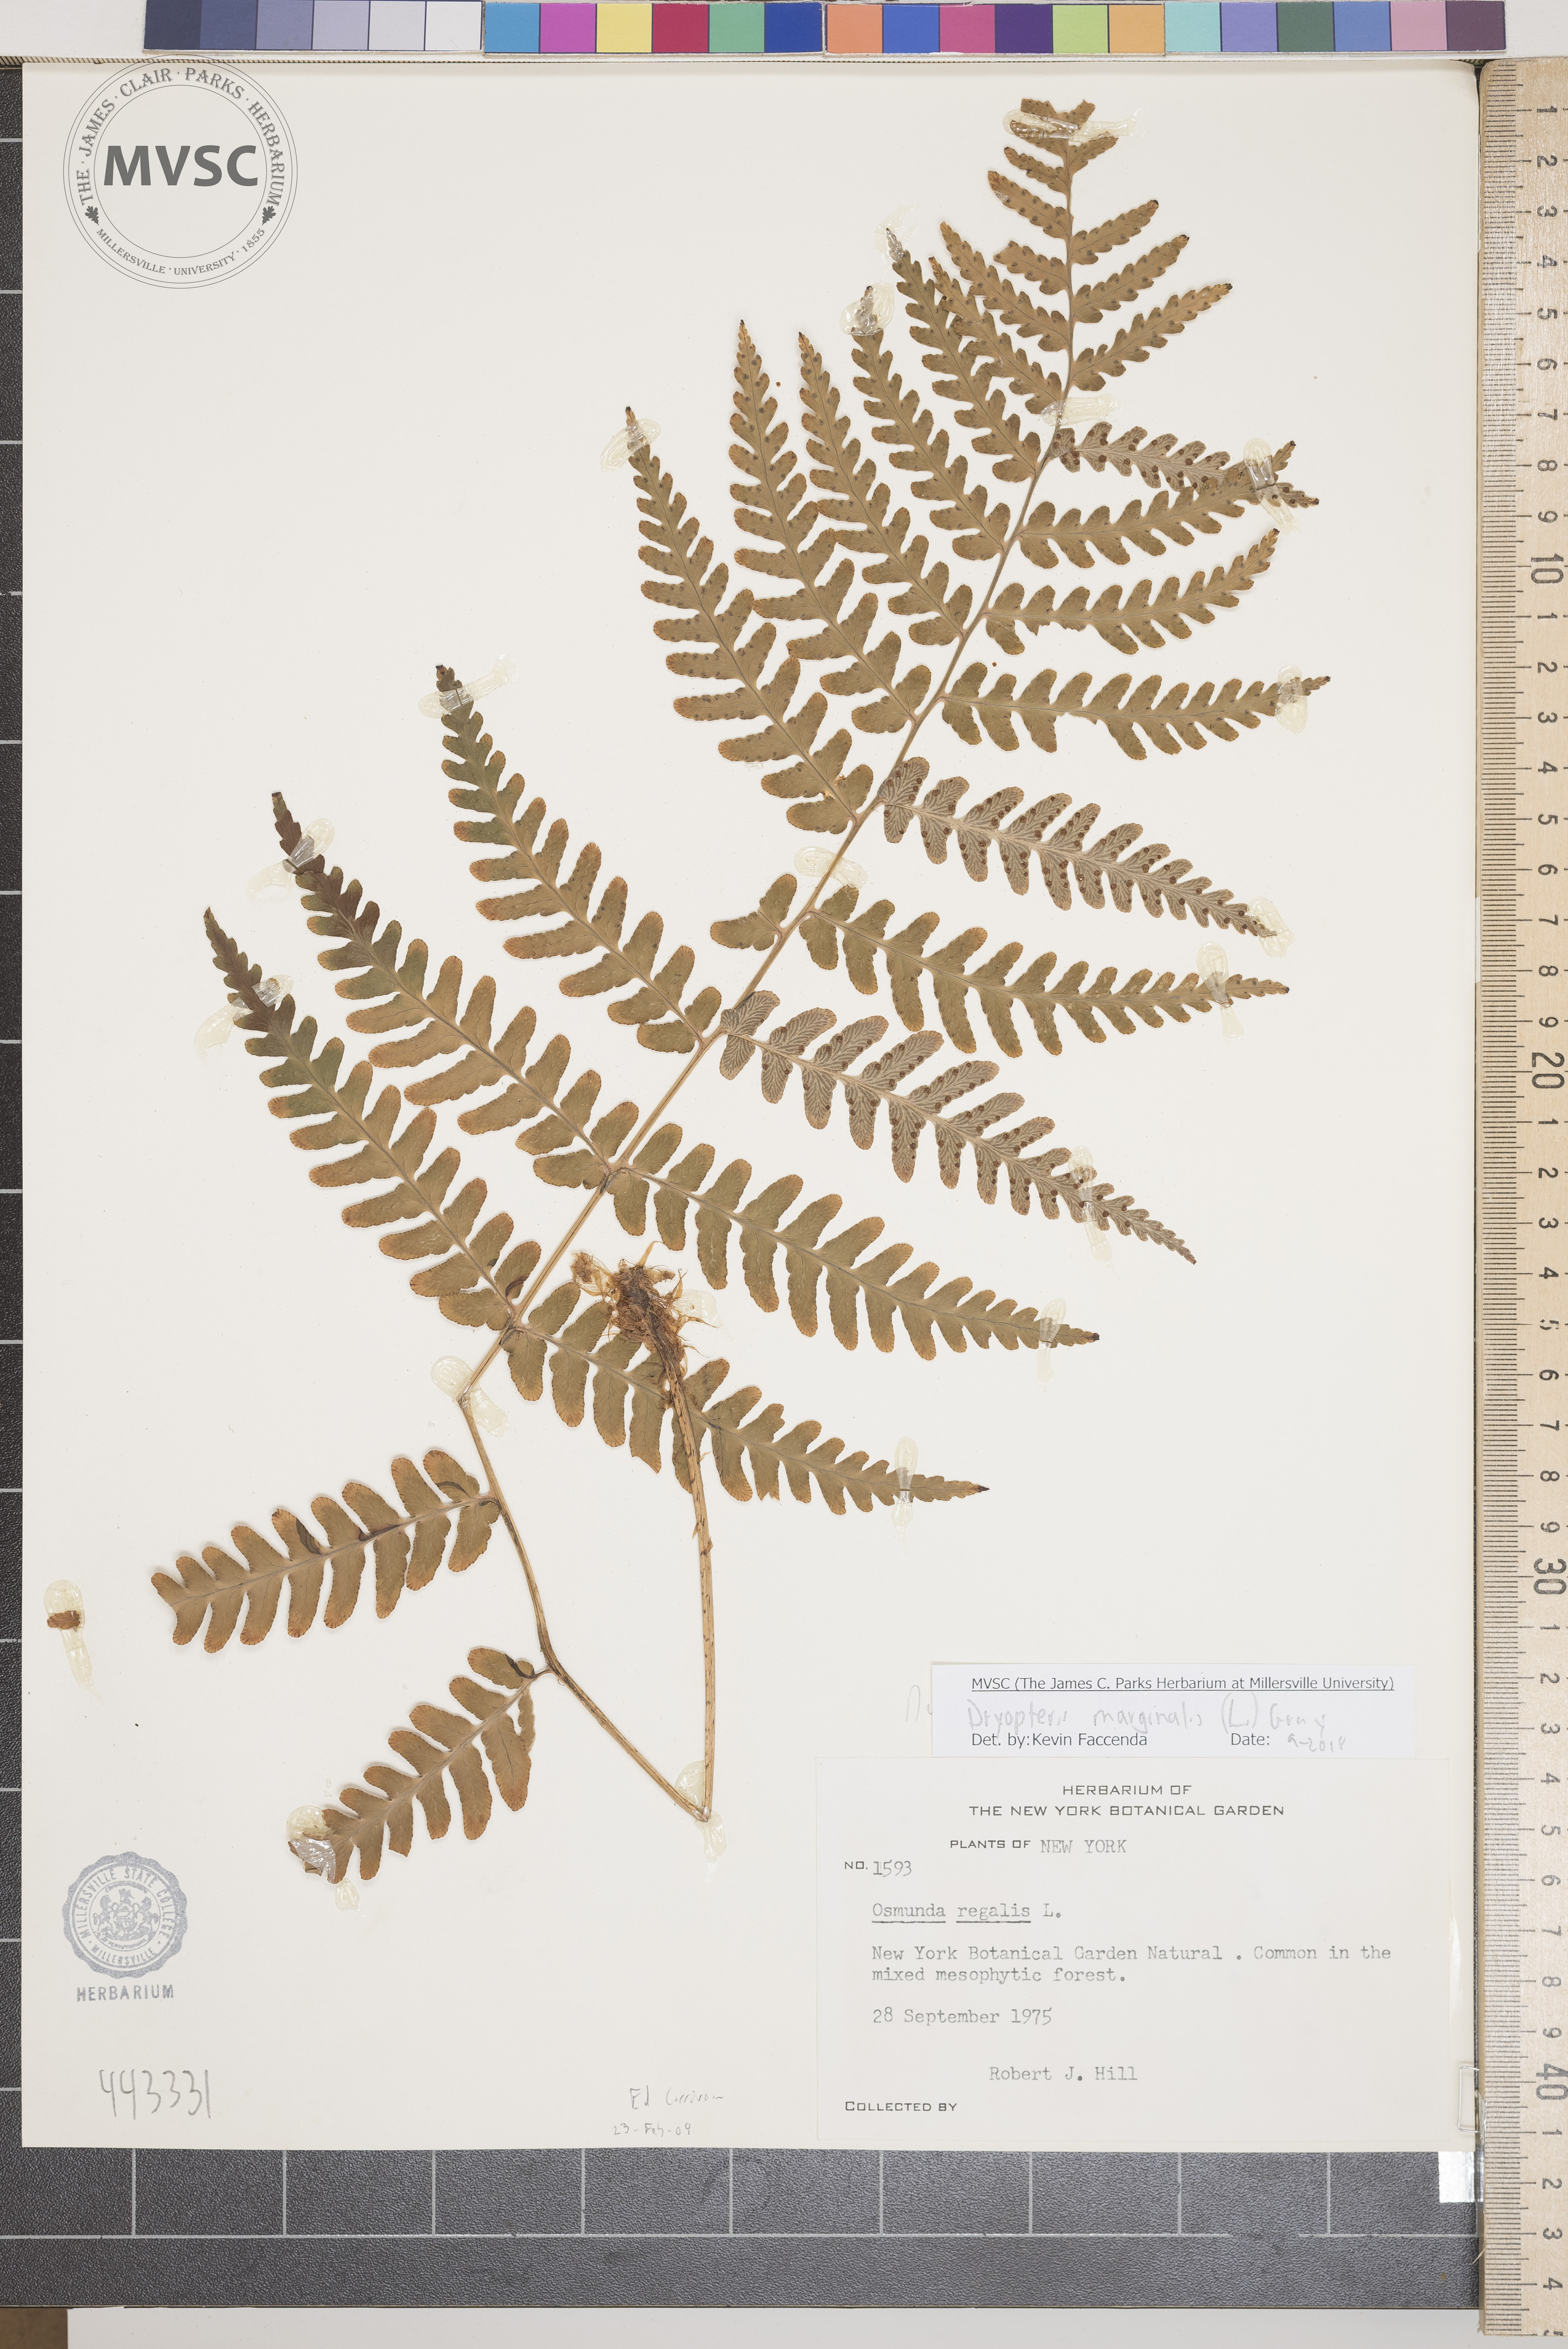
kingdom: Plantae
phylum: Tracheophyta
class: Polypodiopsida
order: Polypodiales
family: Dryopteridaceae
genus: Dryopteris
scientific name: Dryopteris marginalis
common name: Marginal wood fern
